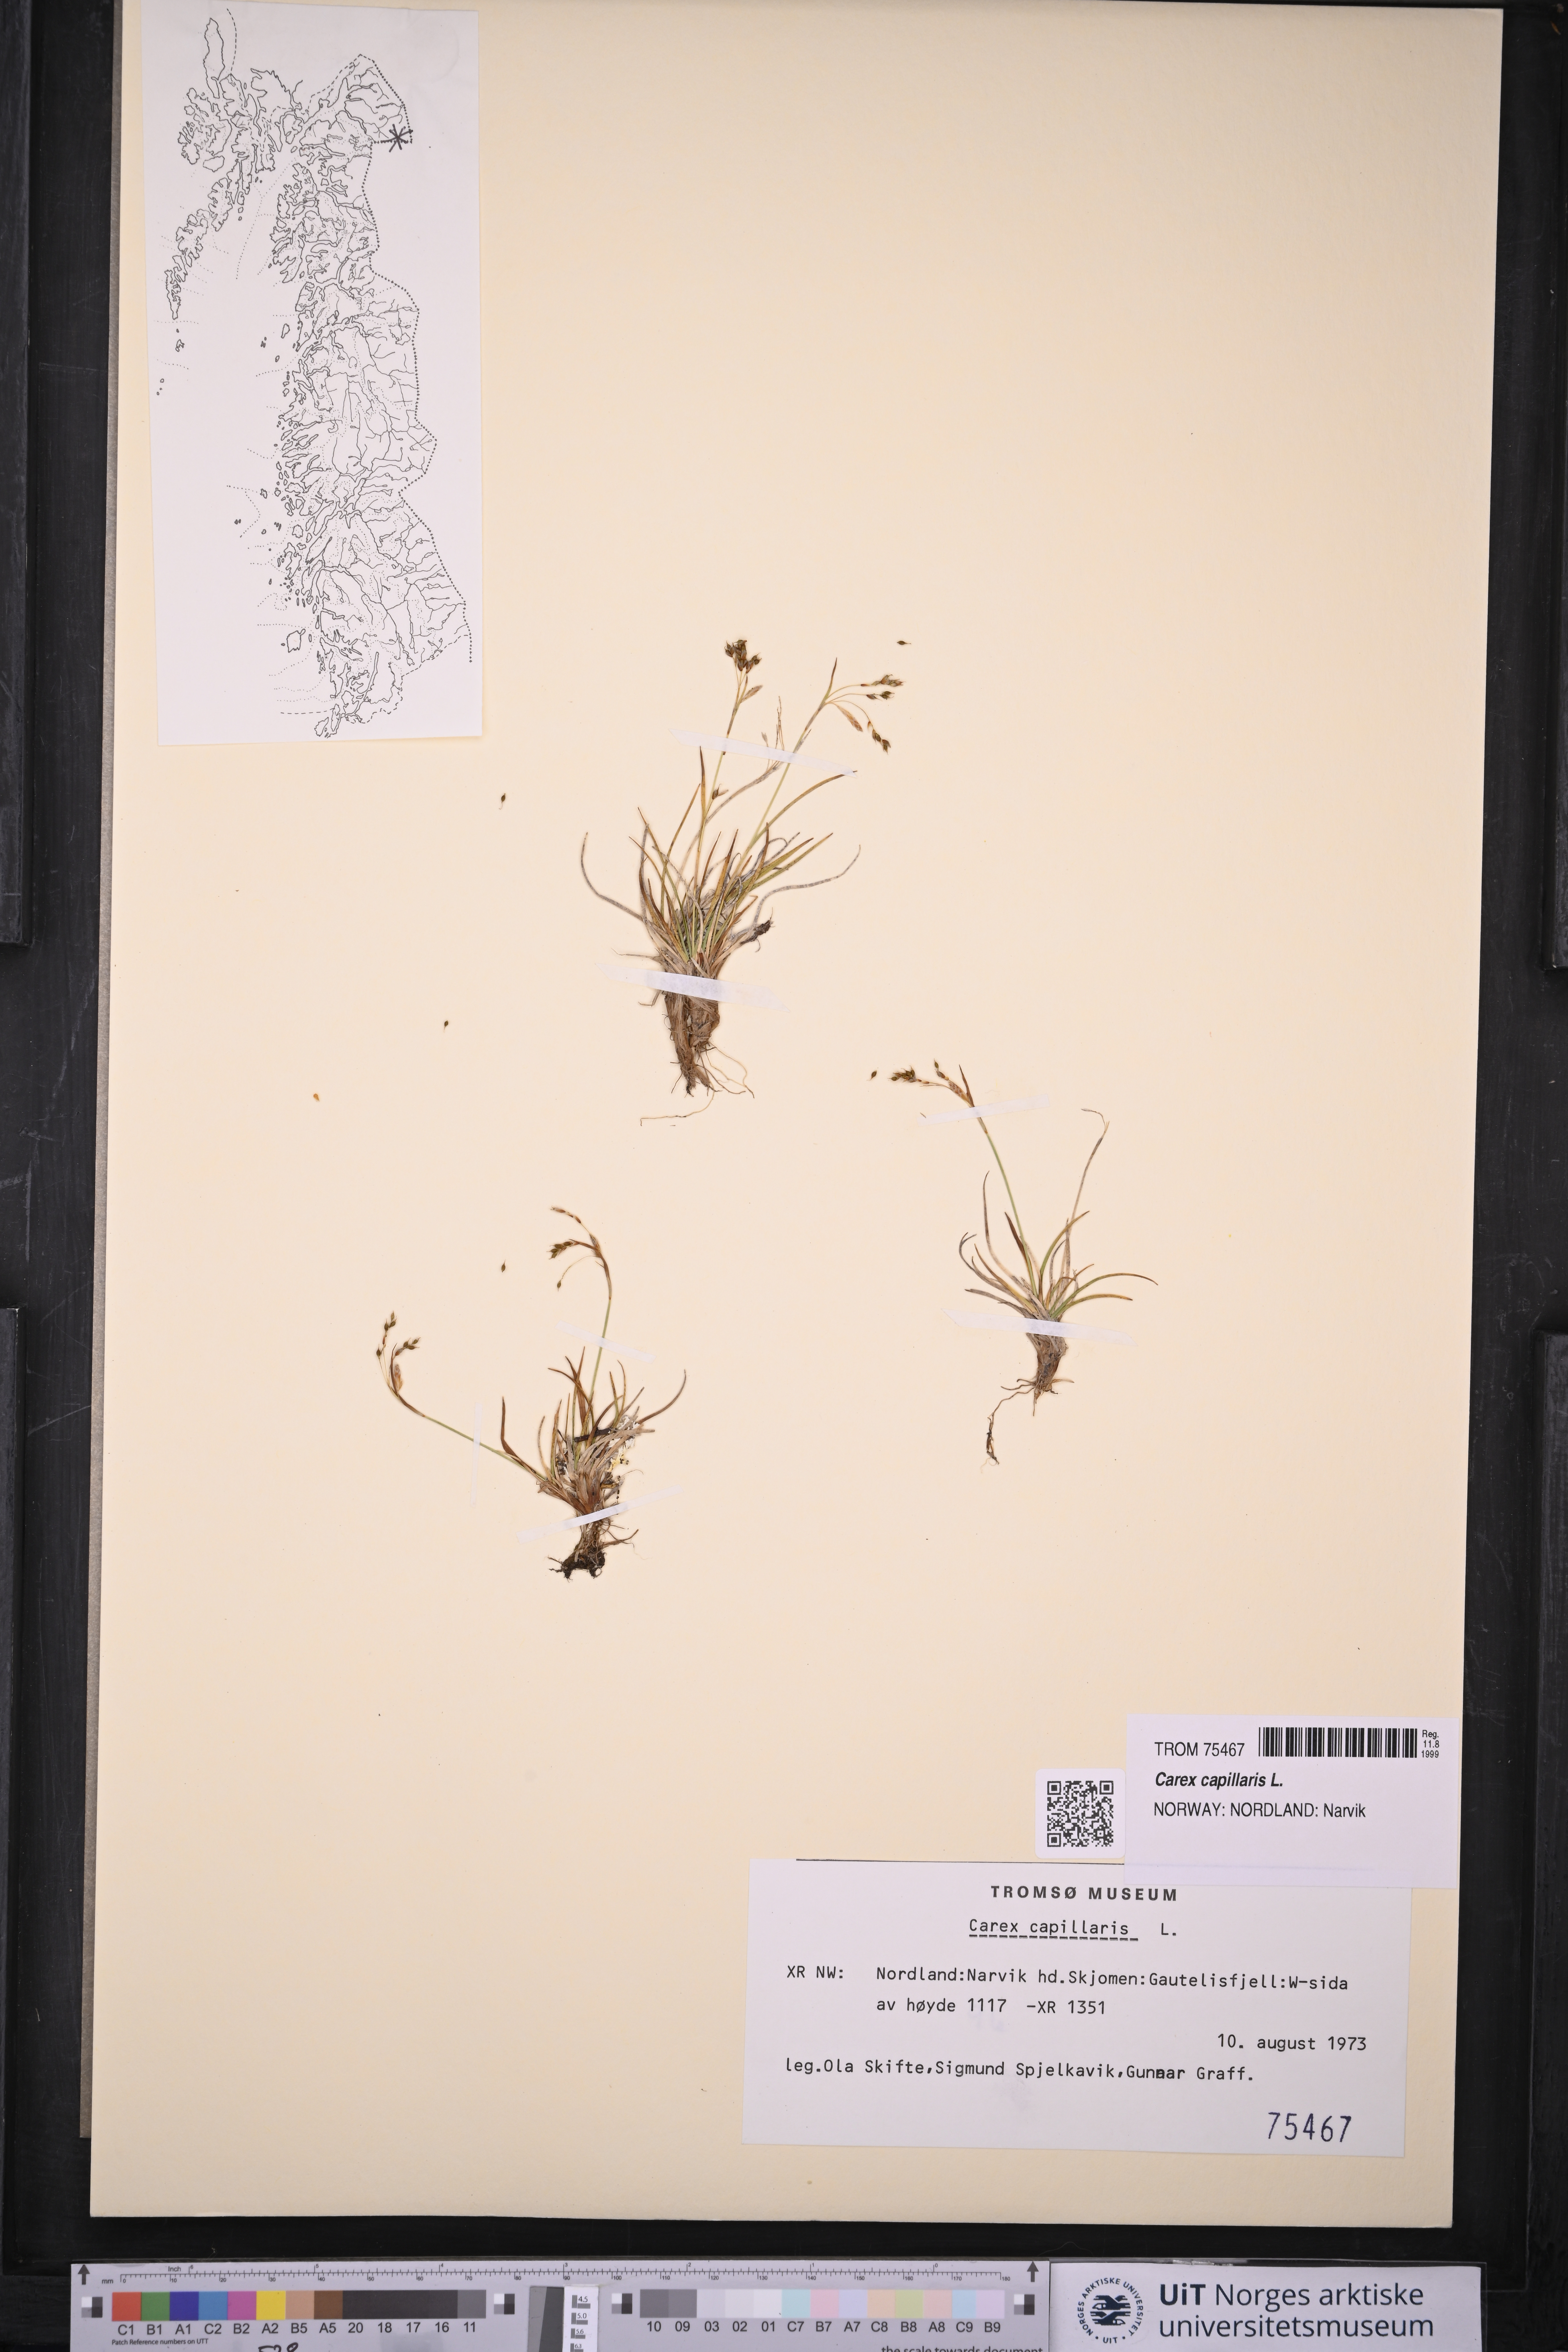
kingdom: Plantae
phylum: Tracheophyta
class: Liliopsida
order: Poales
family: Cyperaceae
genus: Carex
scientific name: Carex capillaris
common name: Hair sedge
